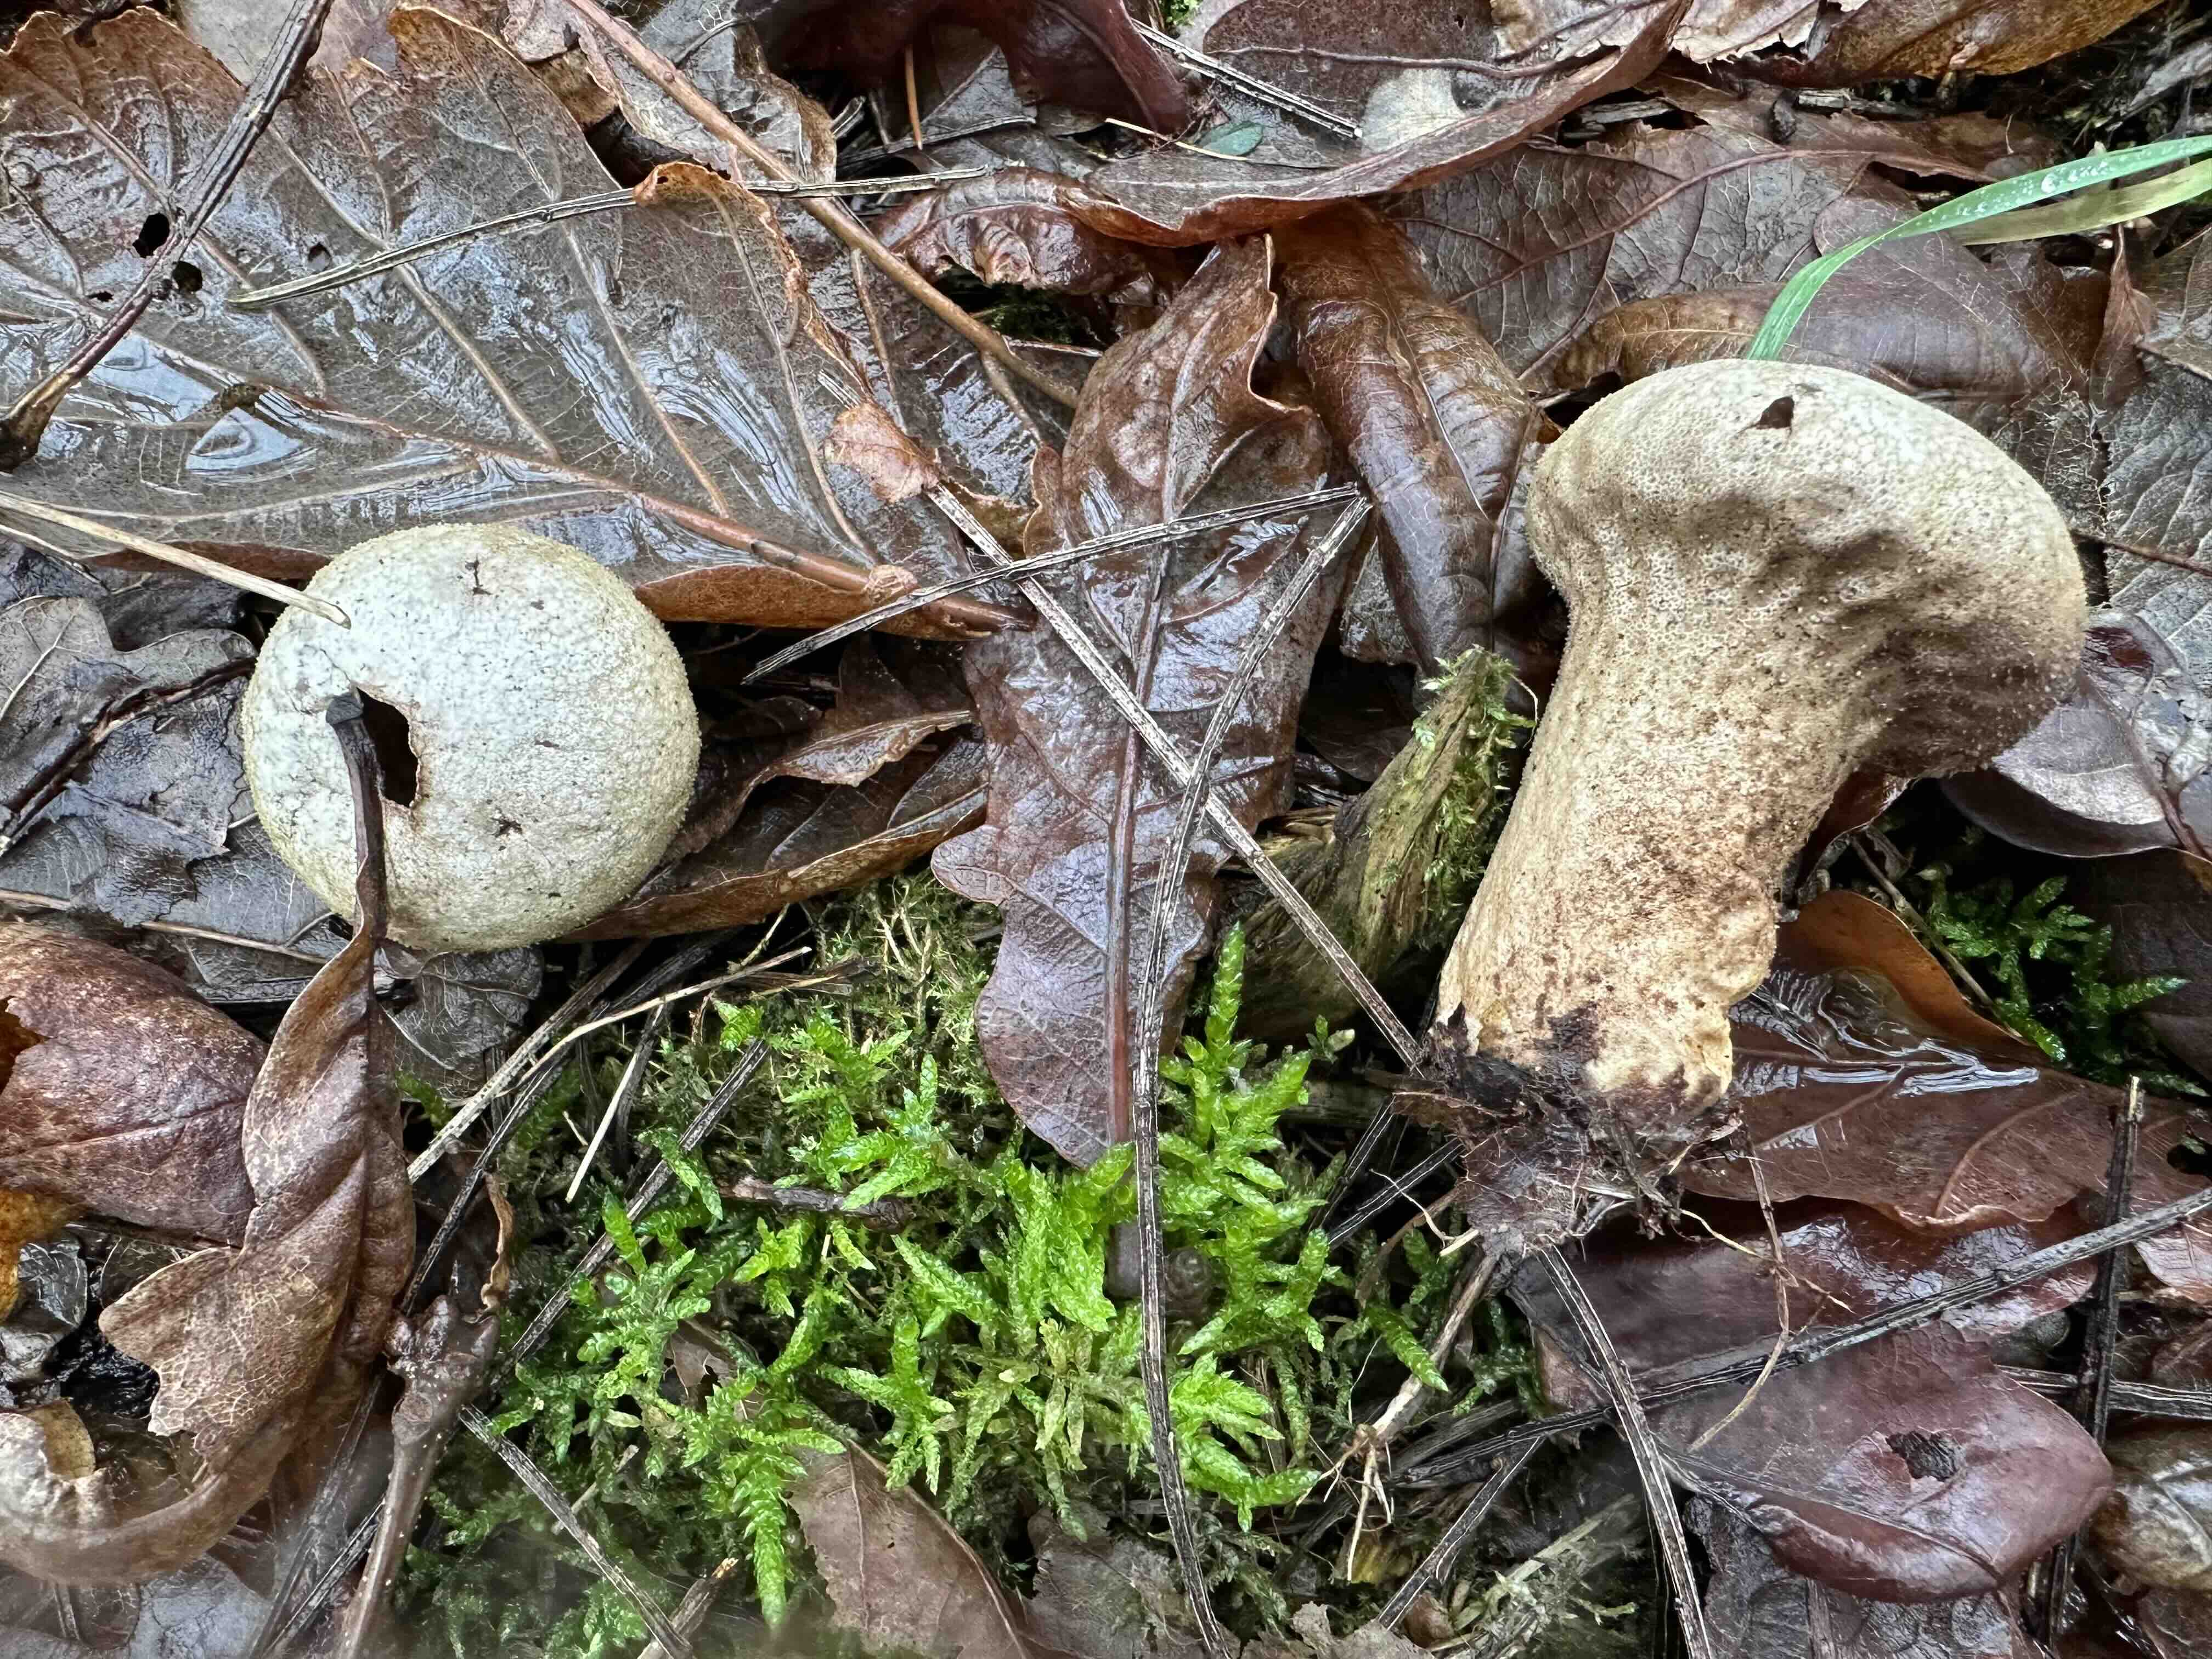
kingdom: Fungi
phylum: Basidiomycota
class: Agaricomycetes
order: Agaricales
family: Lycoperdaceae
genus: Lycoperdon
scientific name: Lycoperdon perlatum
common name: krystal-støvbold
